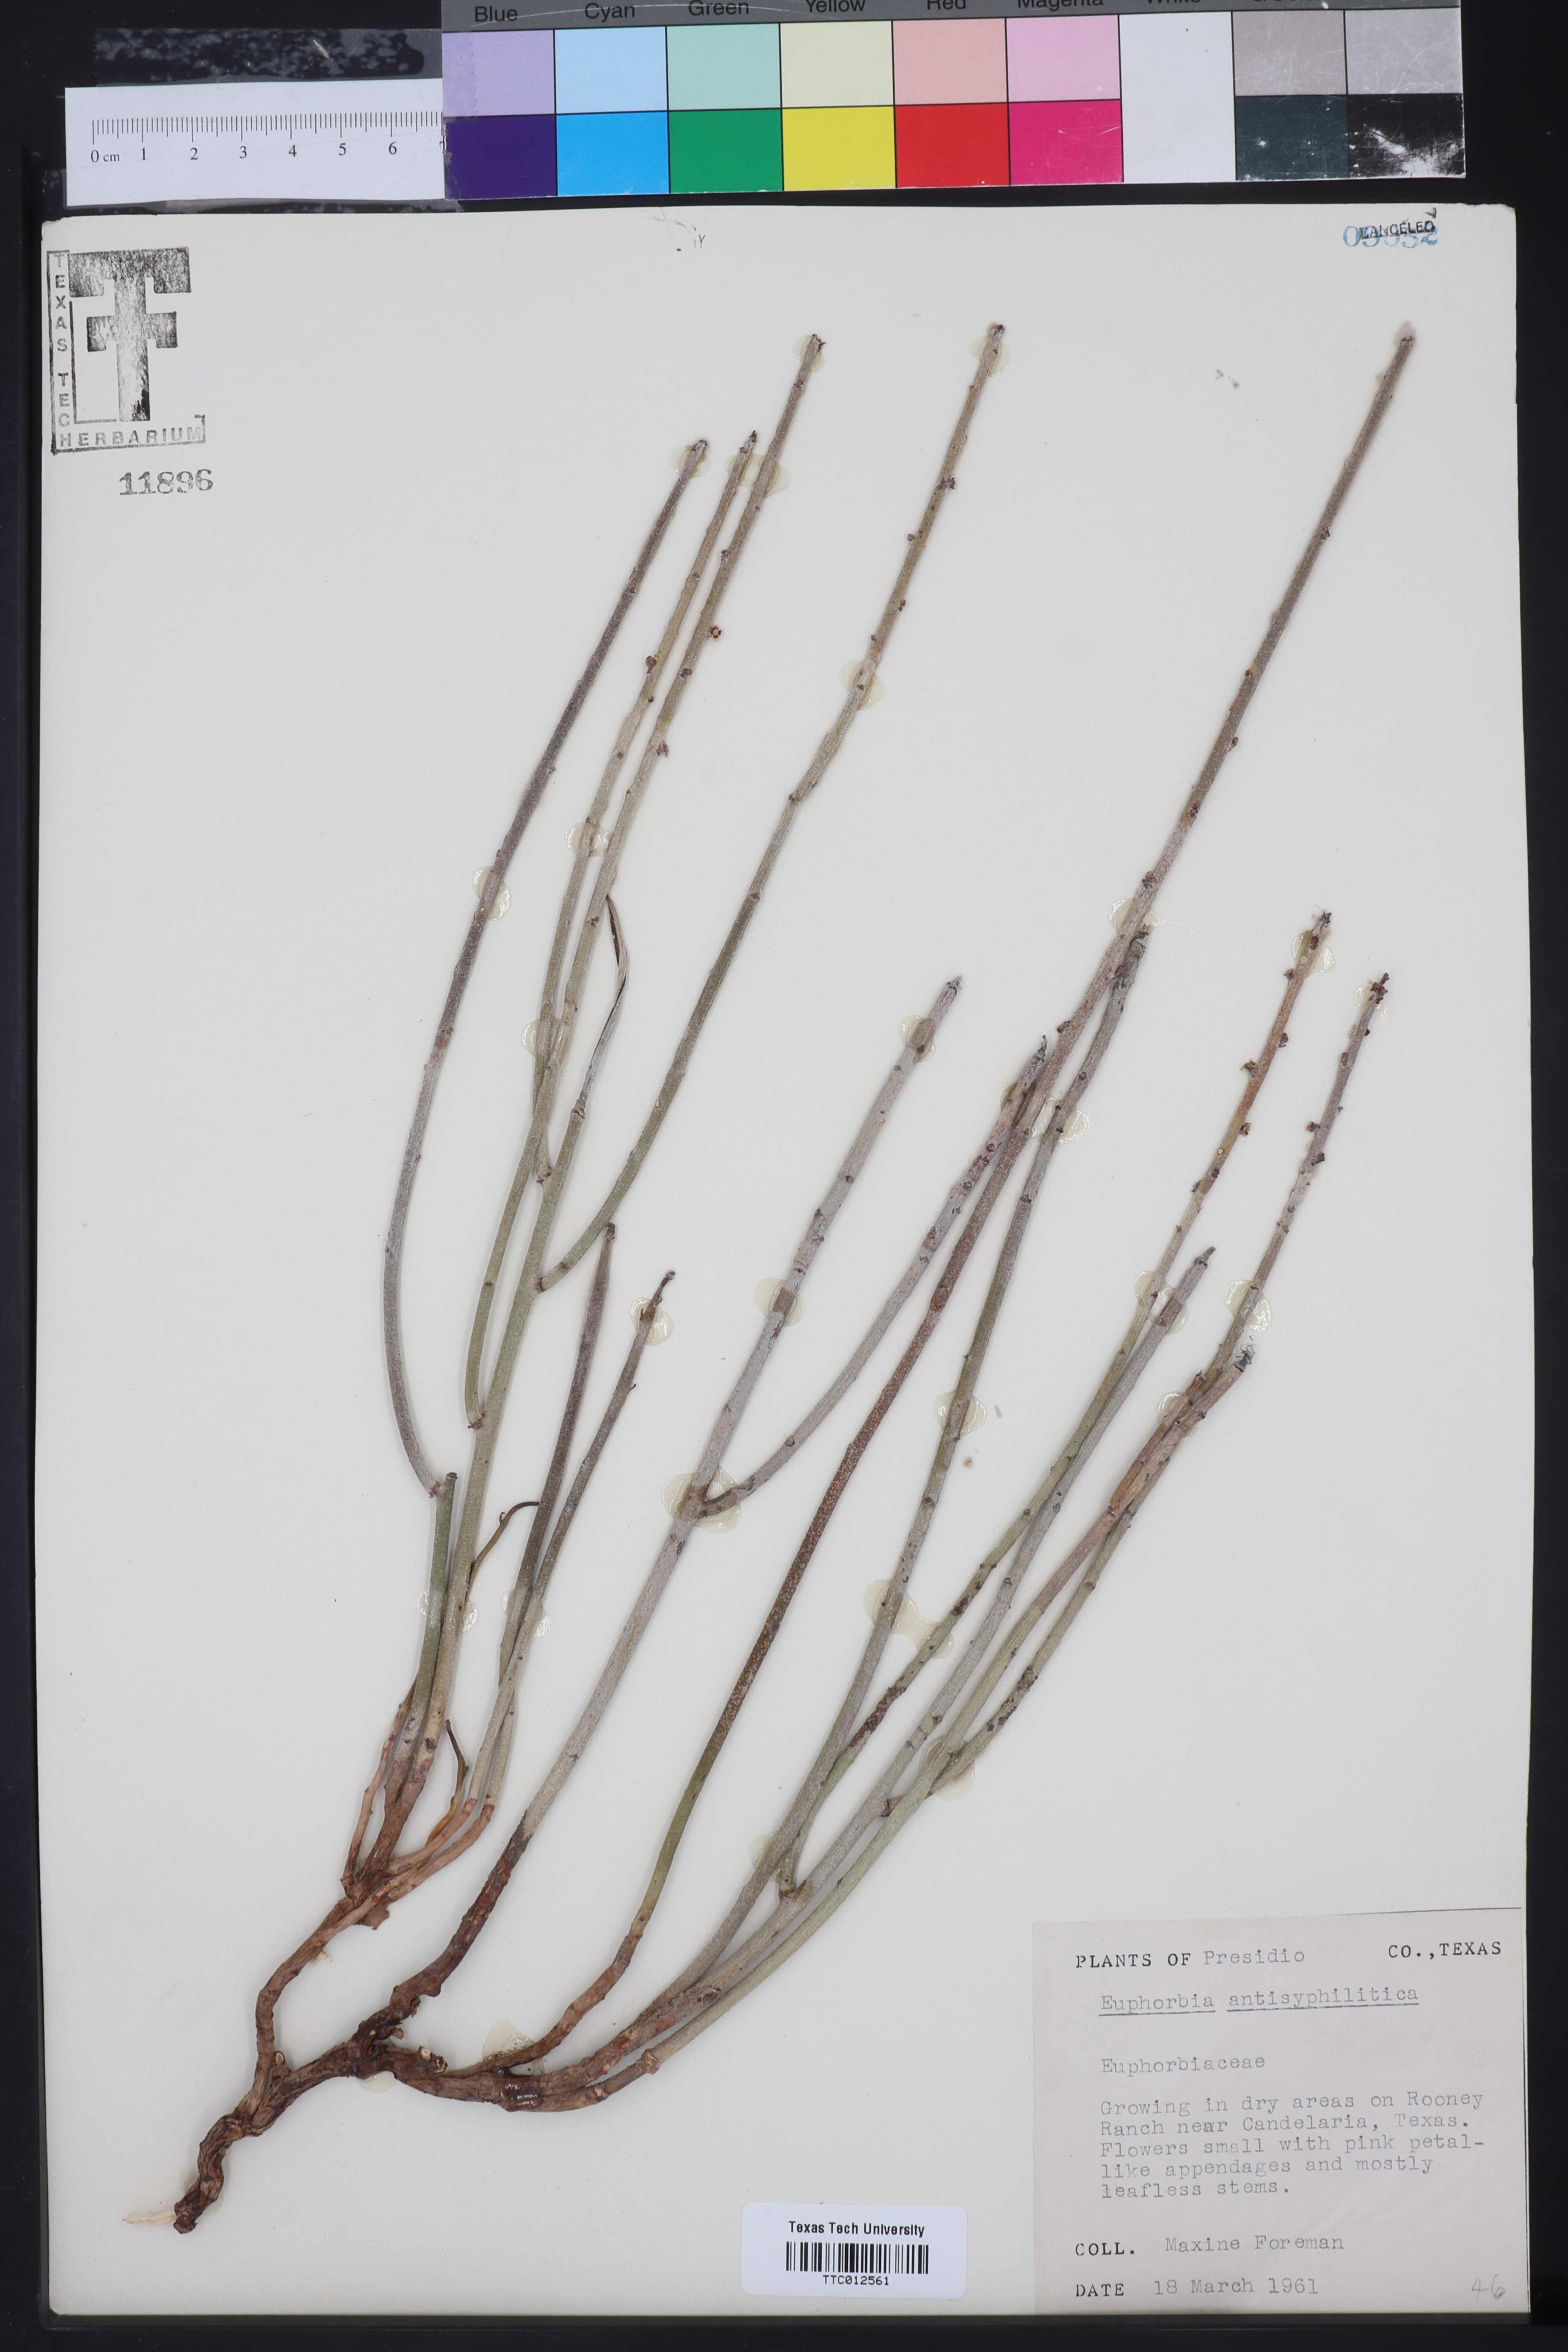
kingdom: Plantae
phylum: Tracheophyta
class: Magnoliopsida
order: Malpighiales
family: Euphorbiaceae
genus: Euphorbia
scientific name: Euphorbia antisyphilitica
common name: Candelilla
